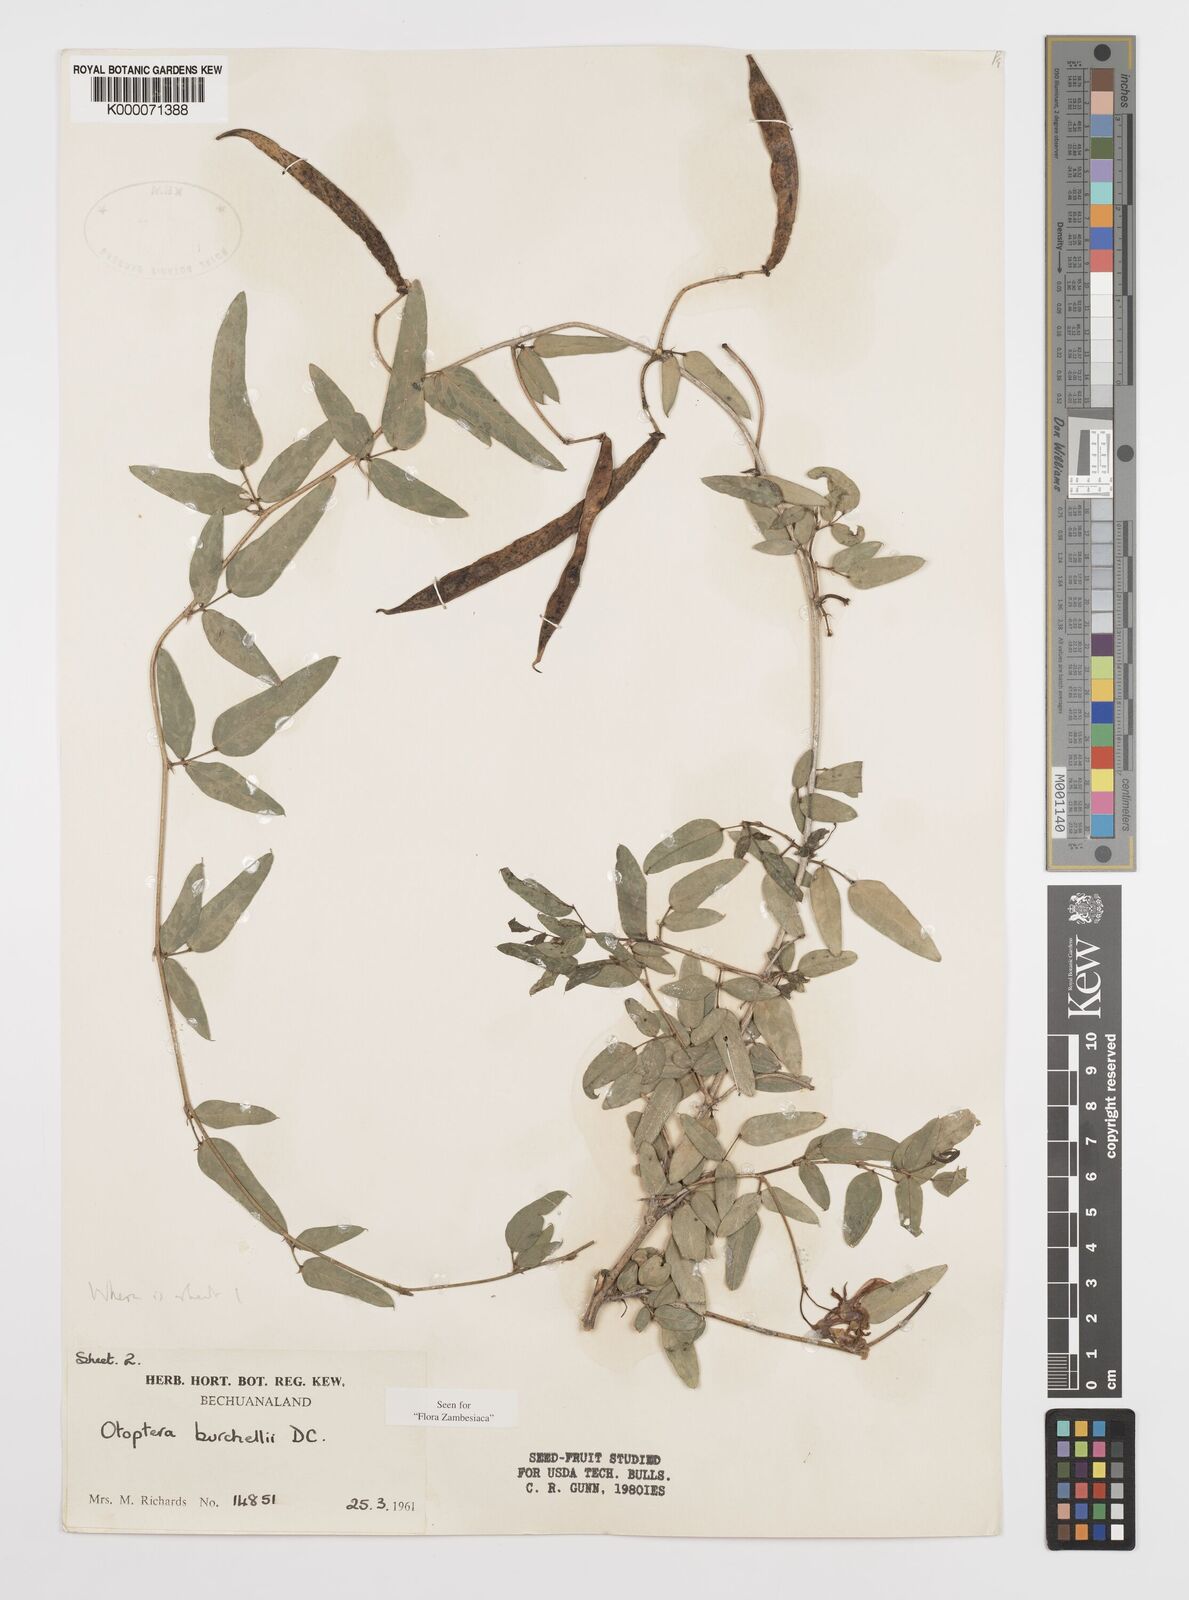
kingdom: Plantae
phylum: Tracheophyta
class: Magnoliopsida
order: Fabales
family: Fabaceae
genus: Otoptera
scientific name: Otoptera burchellii
